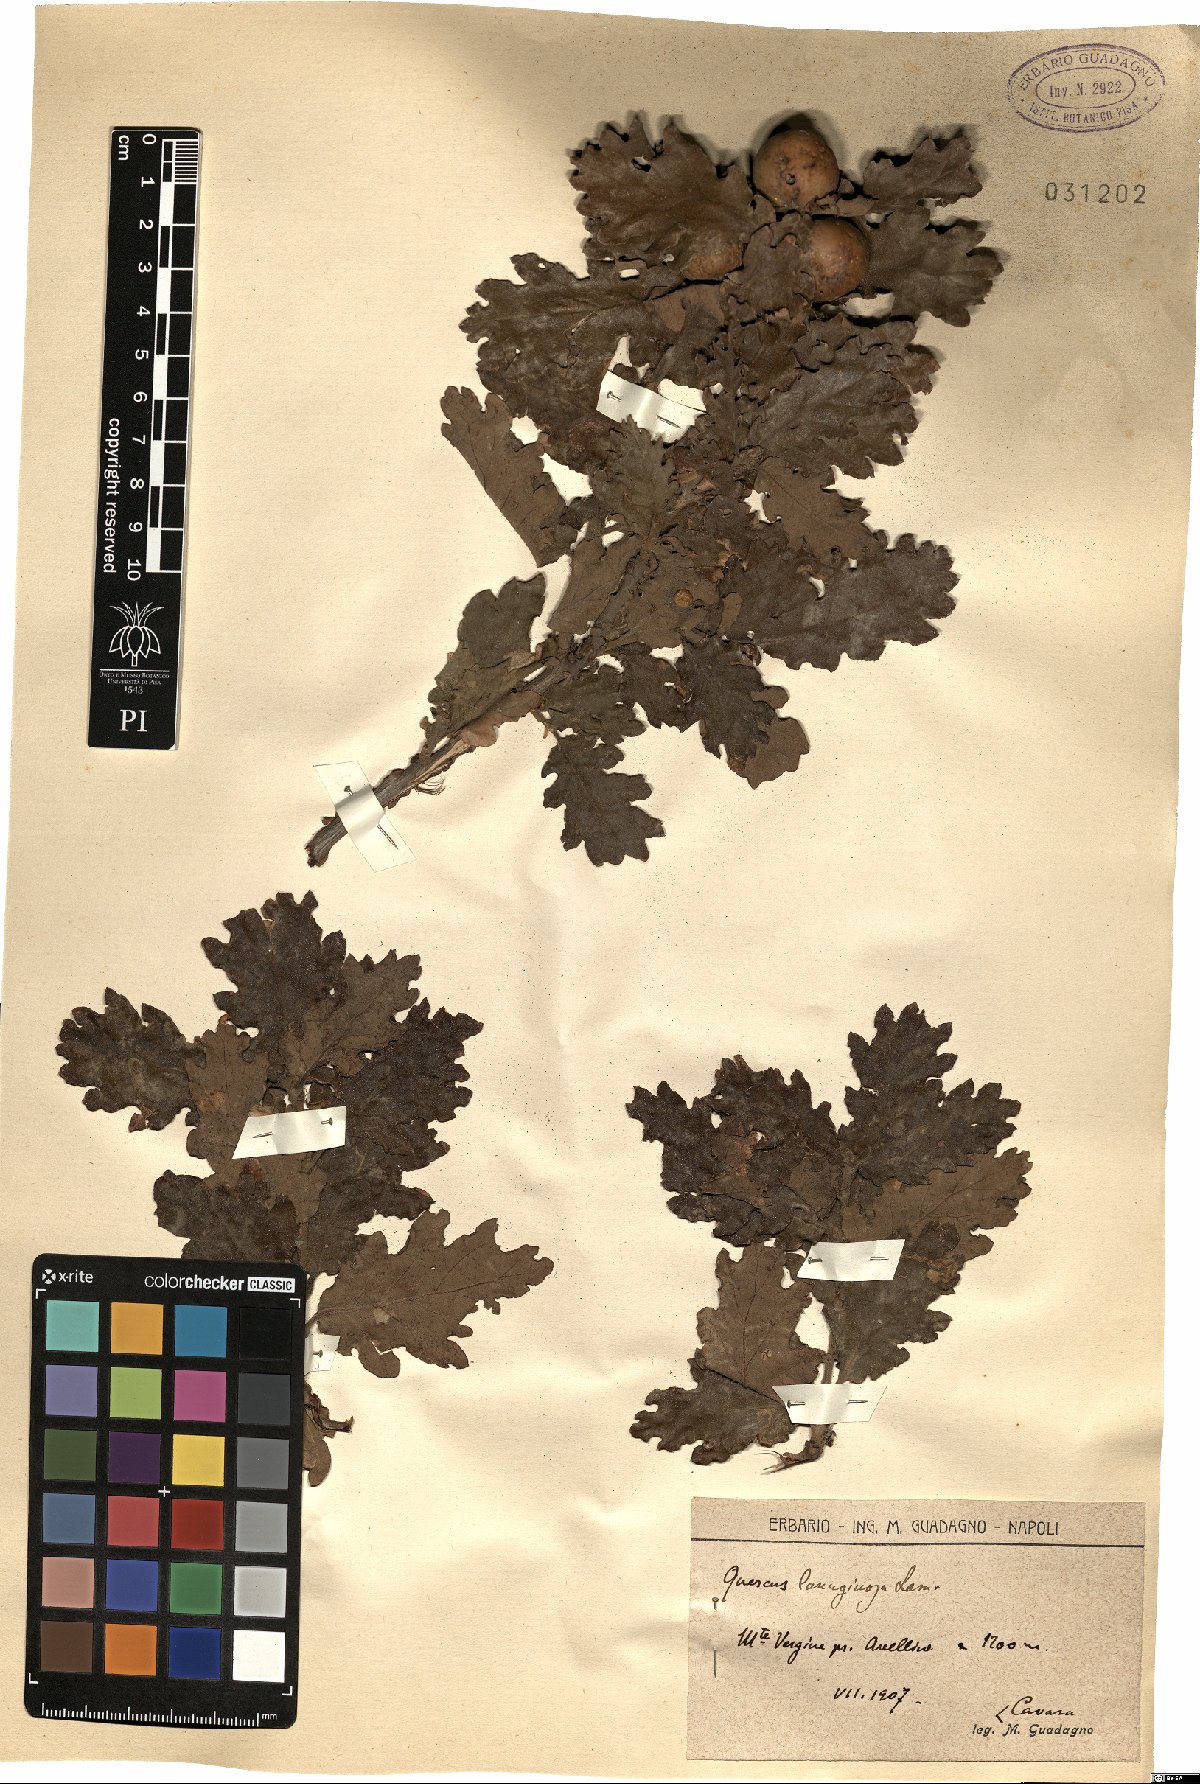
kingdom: Plantae
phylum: Tracheophyta
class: Magnoliopsida
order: Fagales
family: Fagaceae
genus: Quercus
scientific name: Quercus cerris
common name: Turkey oak
